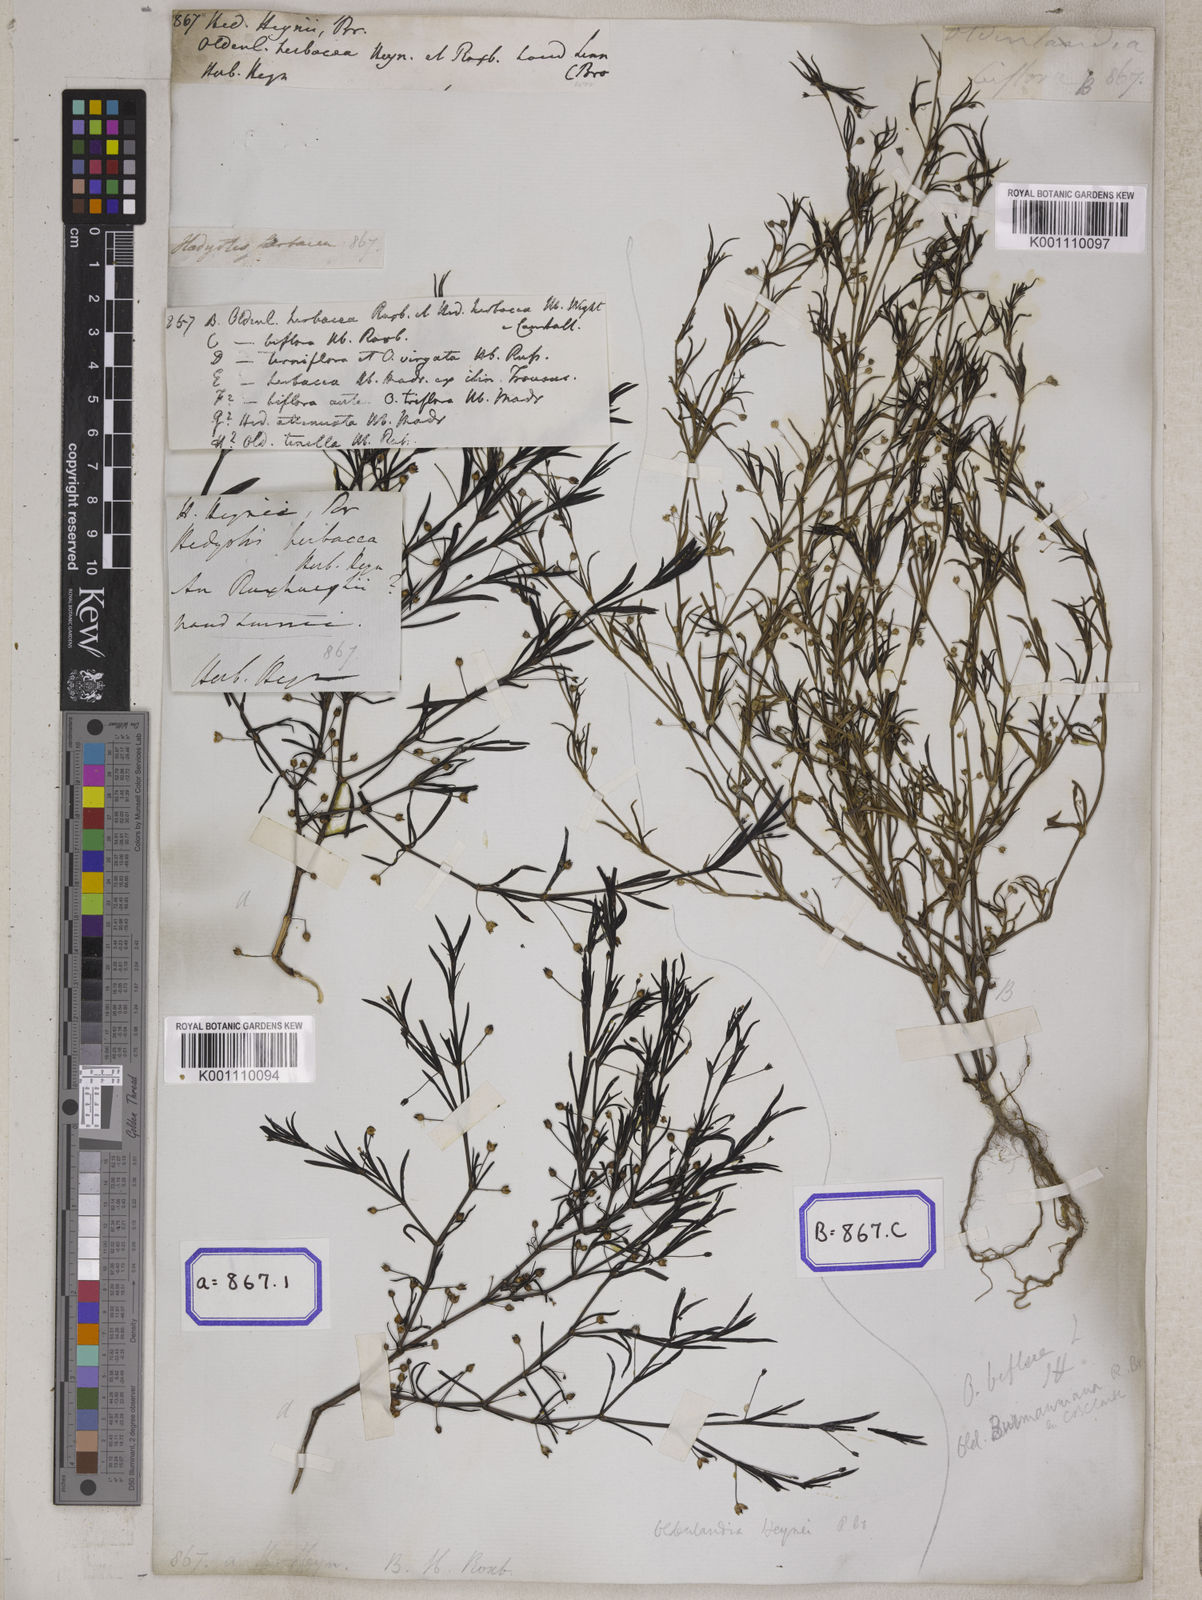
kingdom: Plantae
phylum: Tracheophyta
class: Magnoliopsida
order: Gentianales
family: Rubiaceae
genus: Hedyotis
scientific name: Hedyotis
